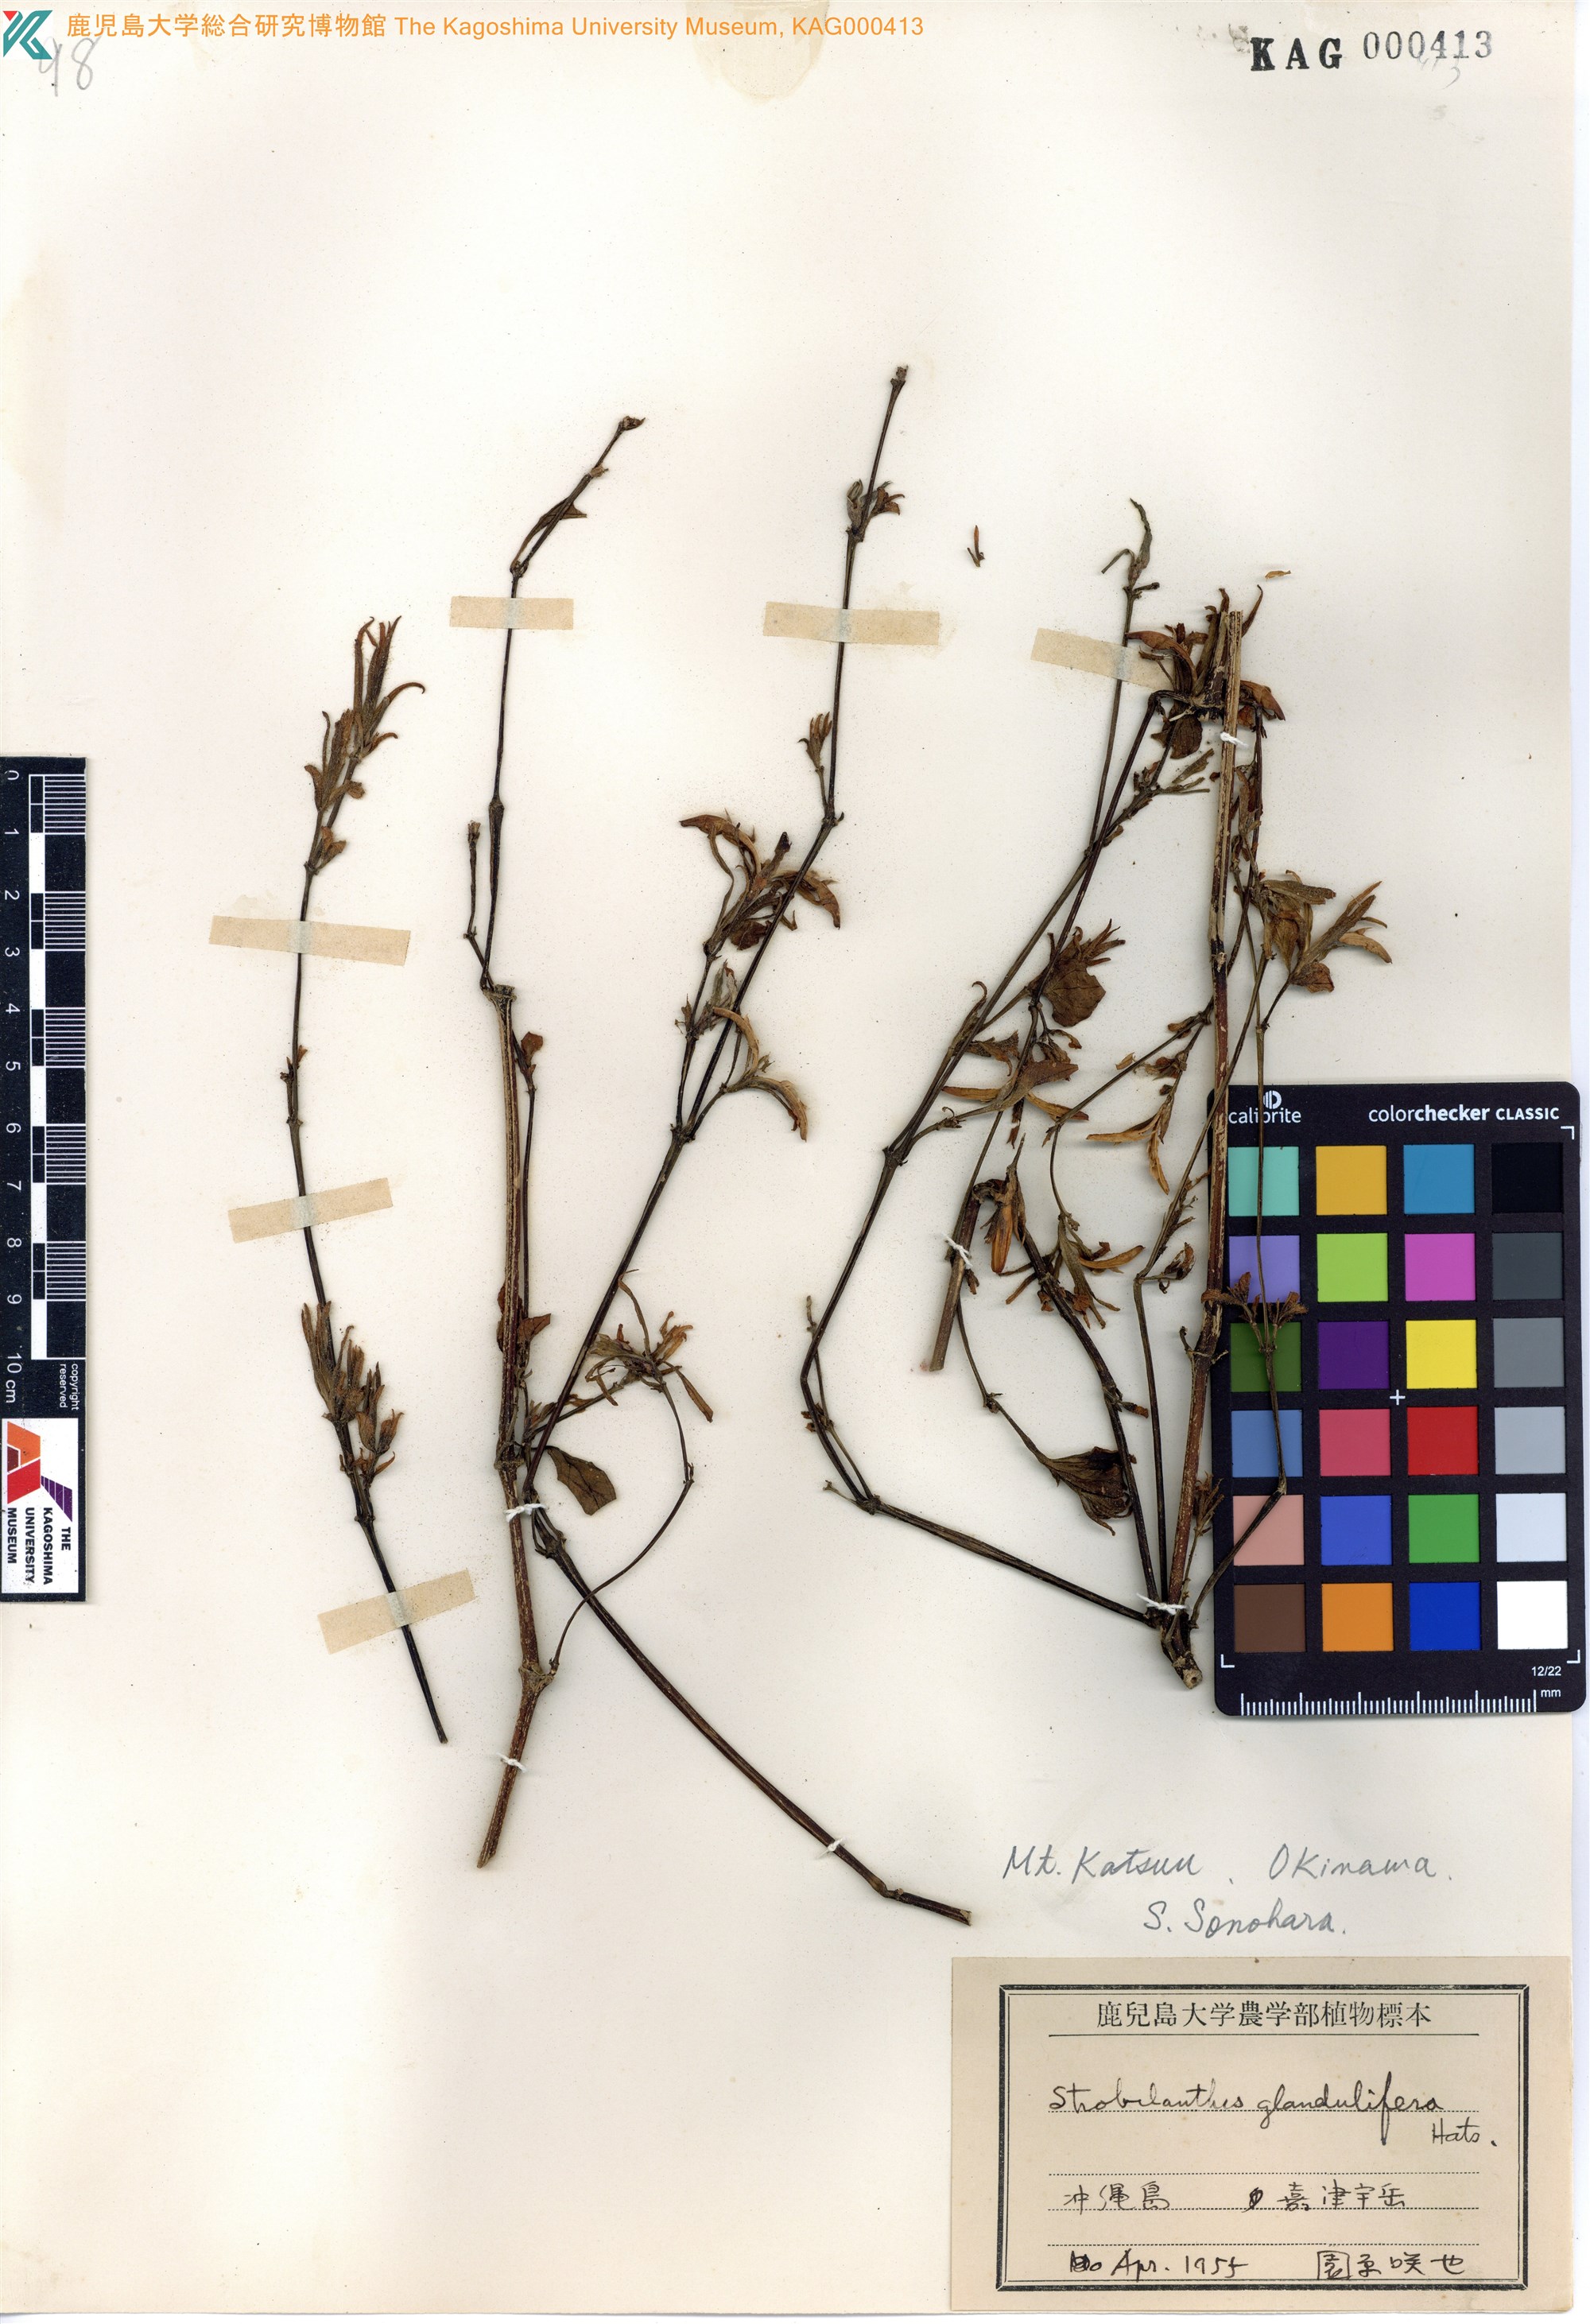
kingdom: Plantae
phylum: Tracheophyta
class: Magnoliopsida
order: Lamiales
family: Acanthaceae
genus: Strobilanthes
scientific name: Strobilanthes flexicaulis
